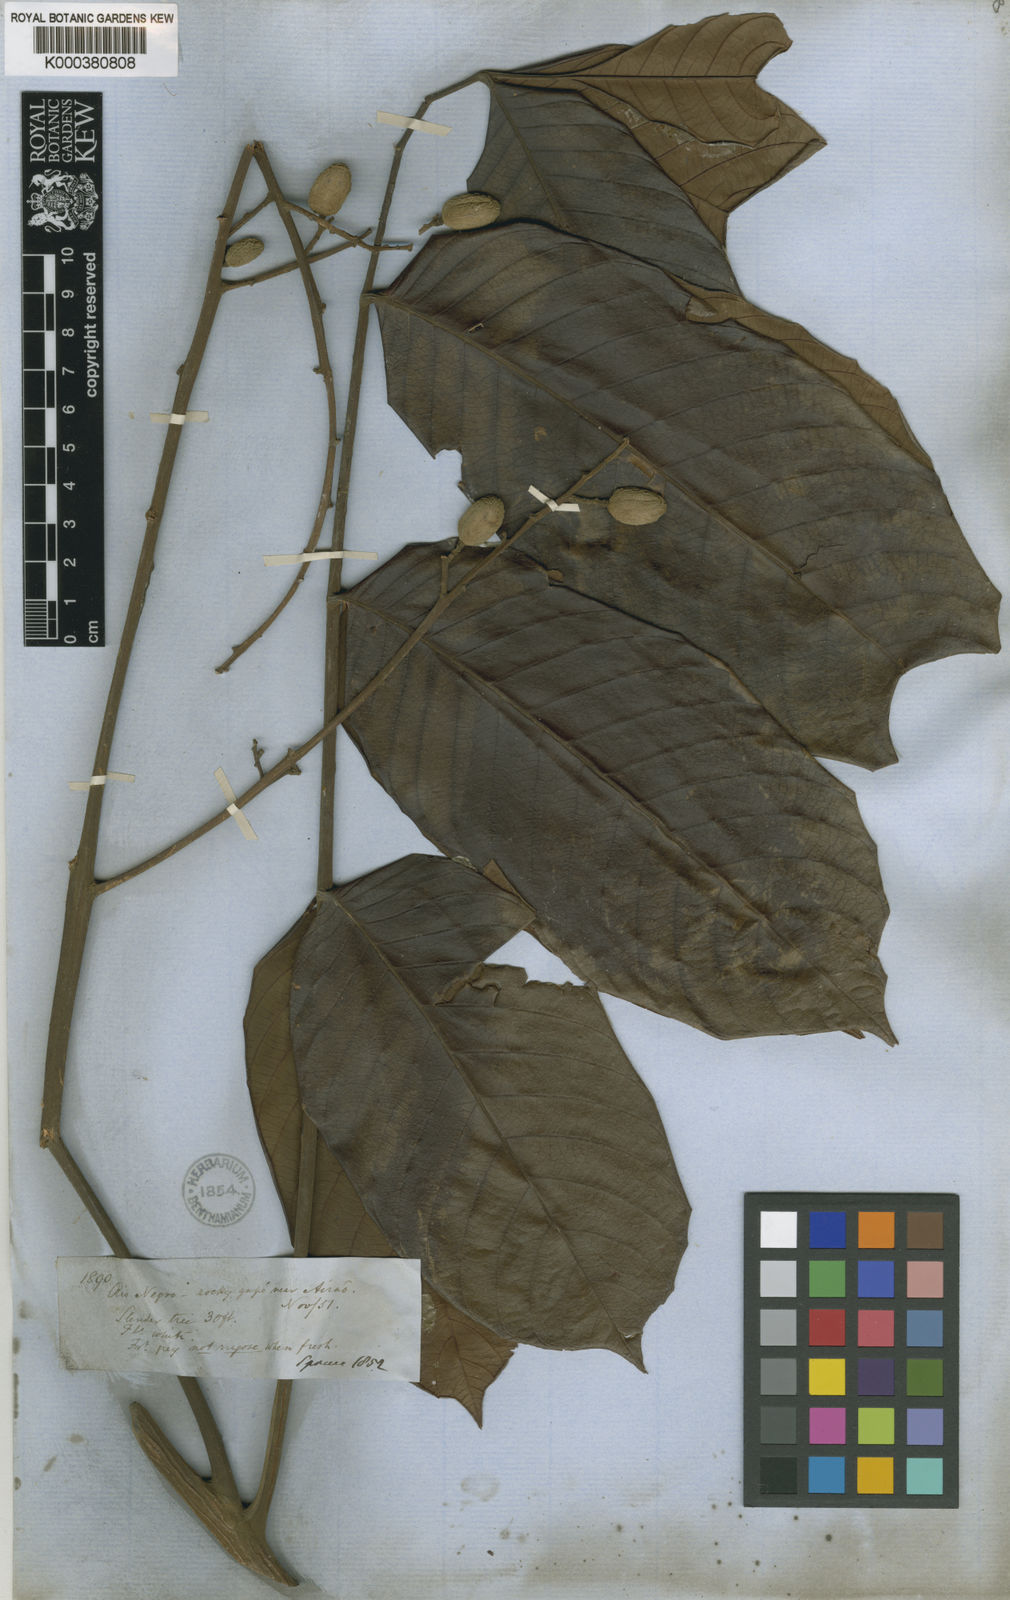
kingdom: Plantae
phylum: Tracheophyta
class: Magnoliopsida
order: Sapindales
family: Meliaceae
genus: Trichilia
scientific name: Trichilia septentrionalis
